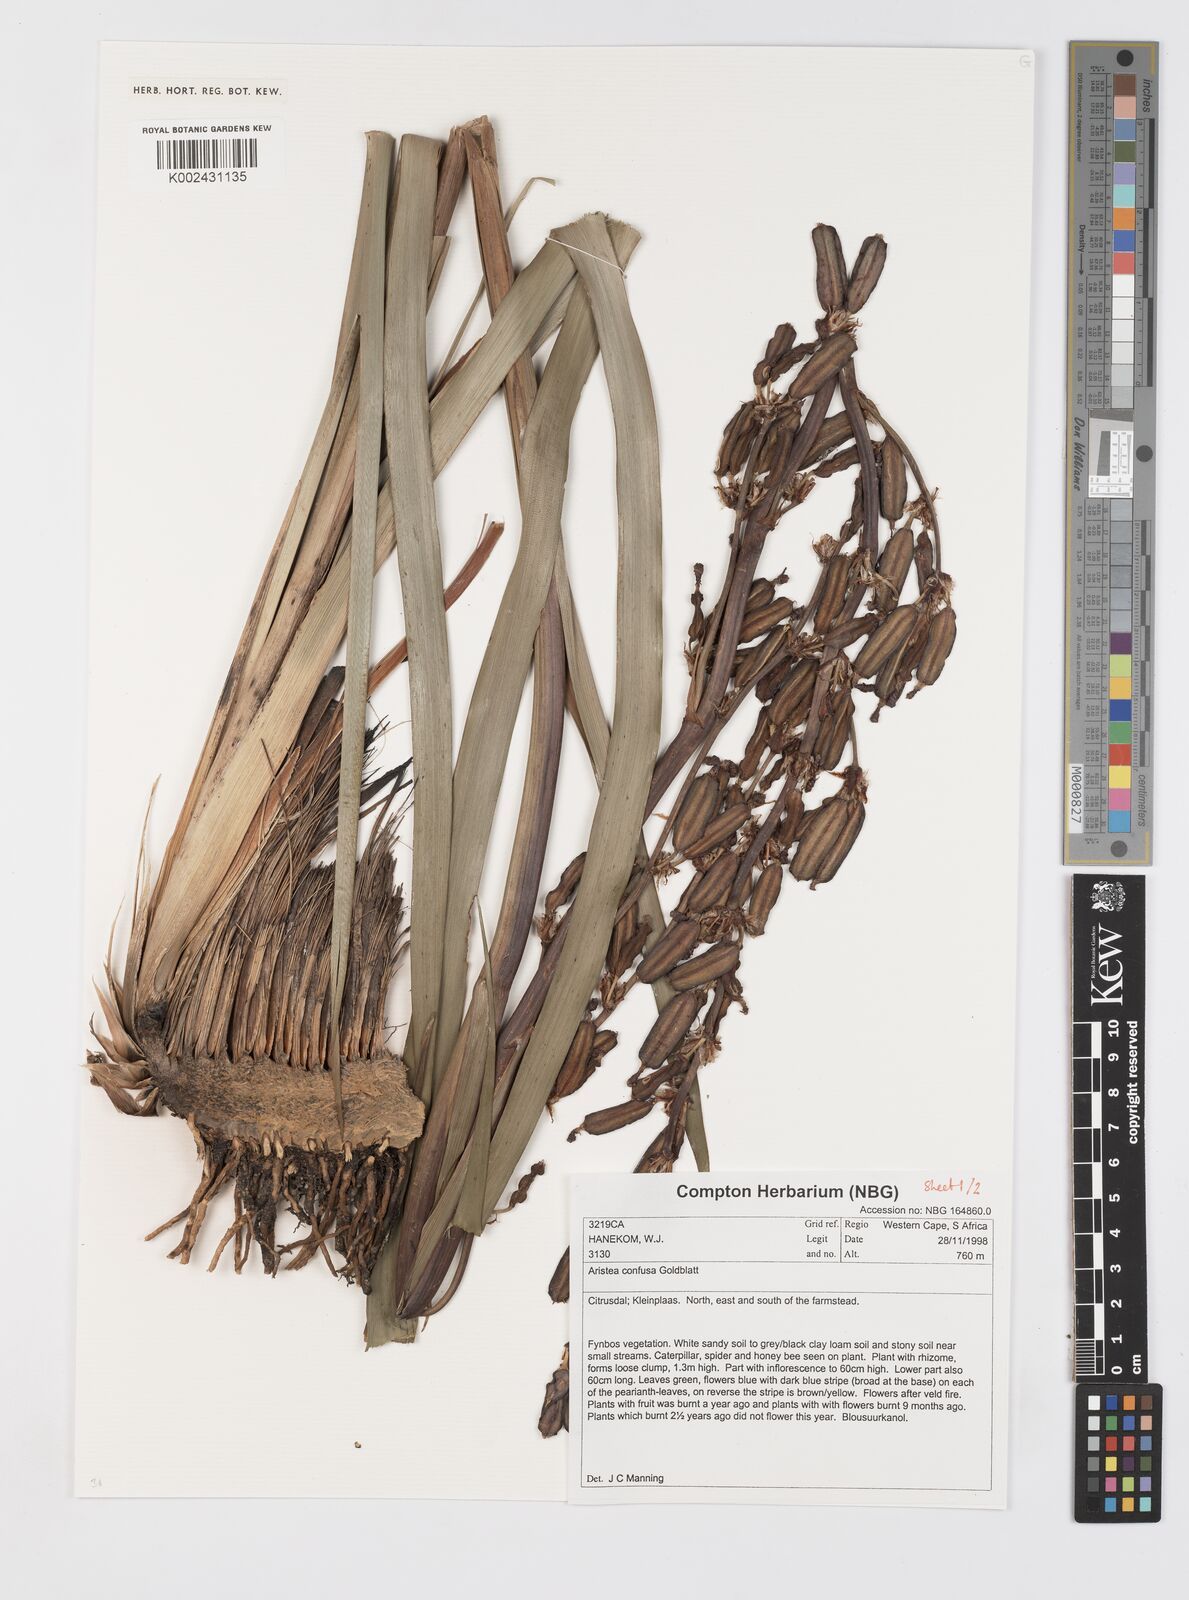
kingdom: Plantae
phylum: Tracheophyta
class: Liliopsida
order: Asparagales
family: Iridaceae
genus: Aristea
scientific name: Aristea bakeri
